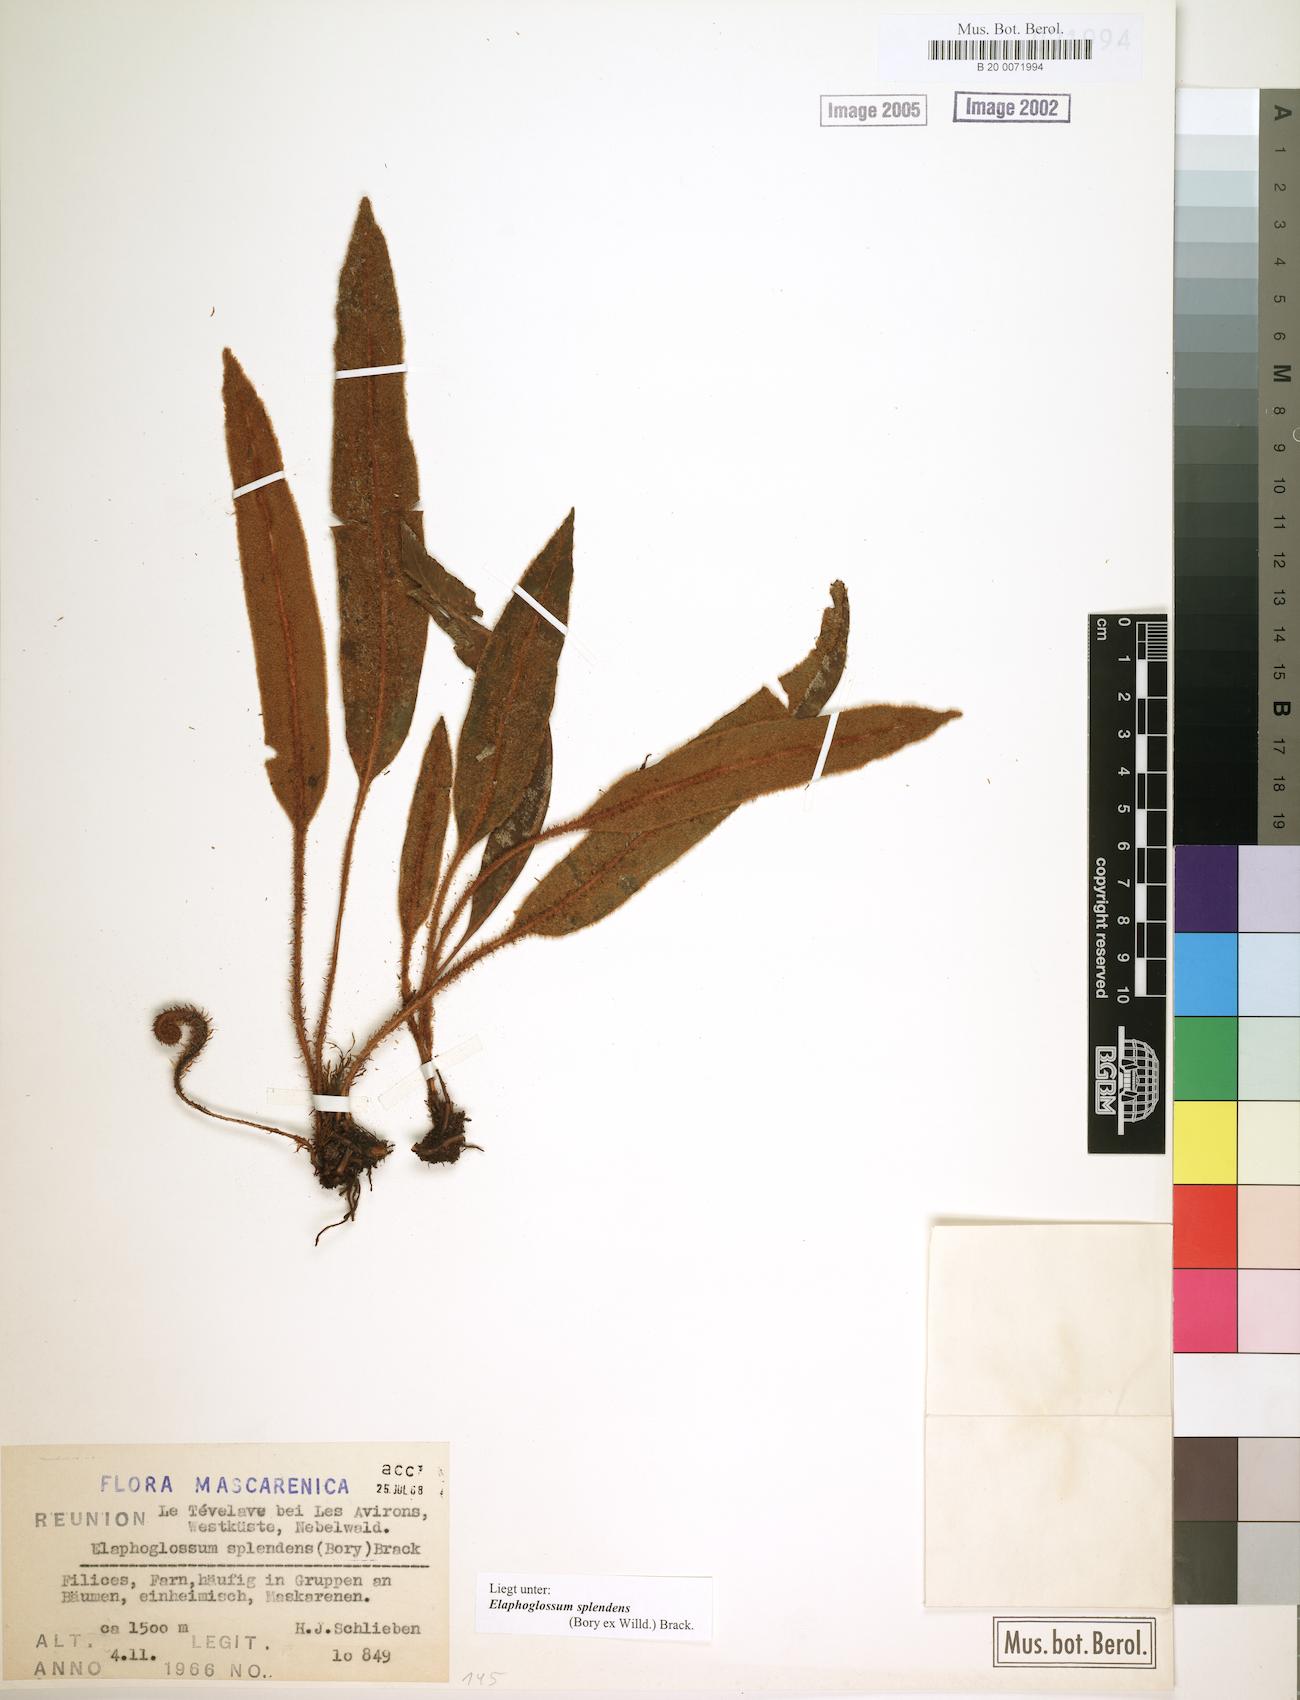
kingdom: Plantae
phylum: Tracheophyta
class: Polypodiopsida
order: Polypodiales
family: Dryopteridaceae
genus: Elaphoglossum
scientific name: Elaphoglossum splendens
